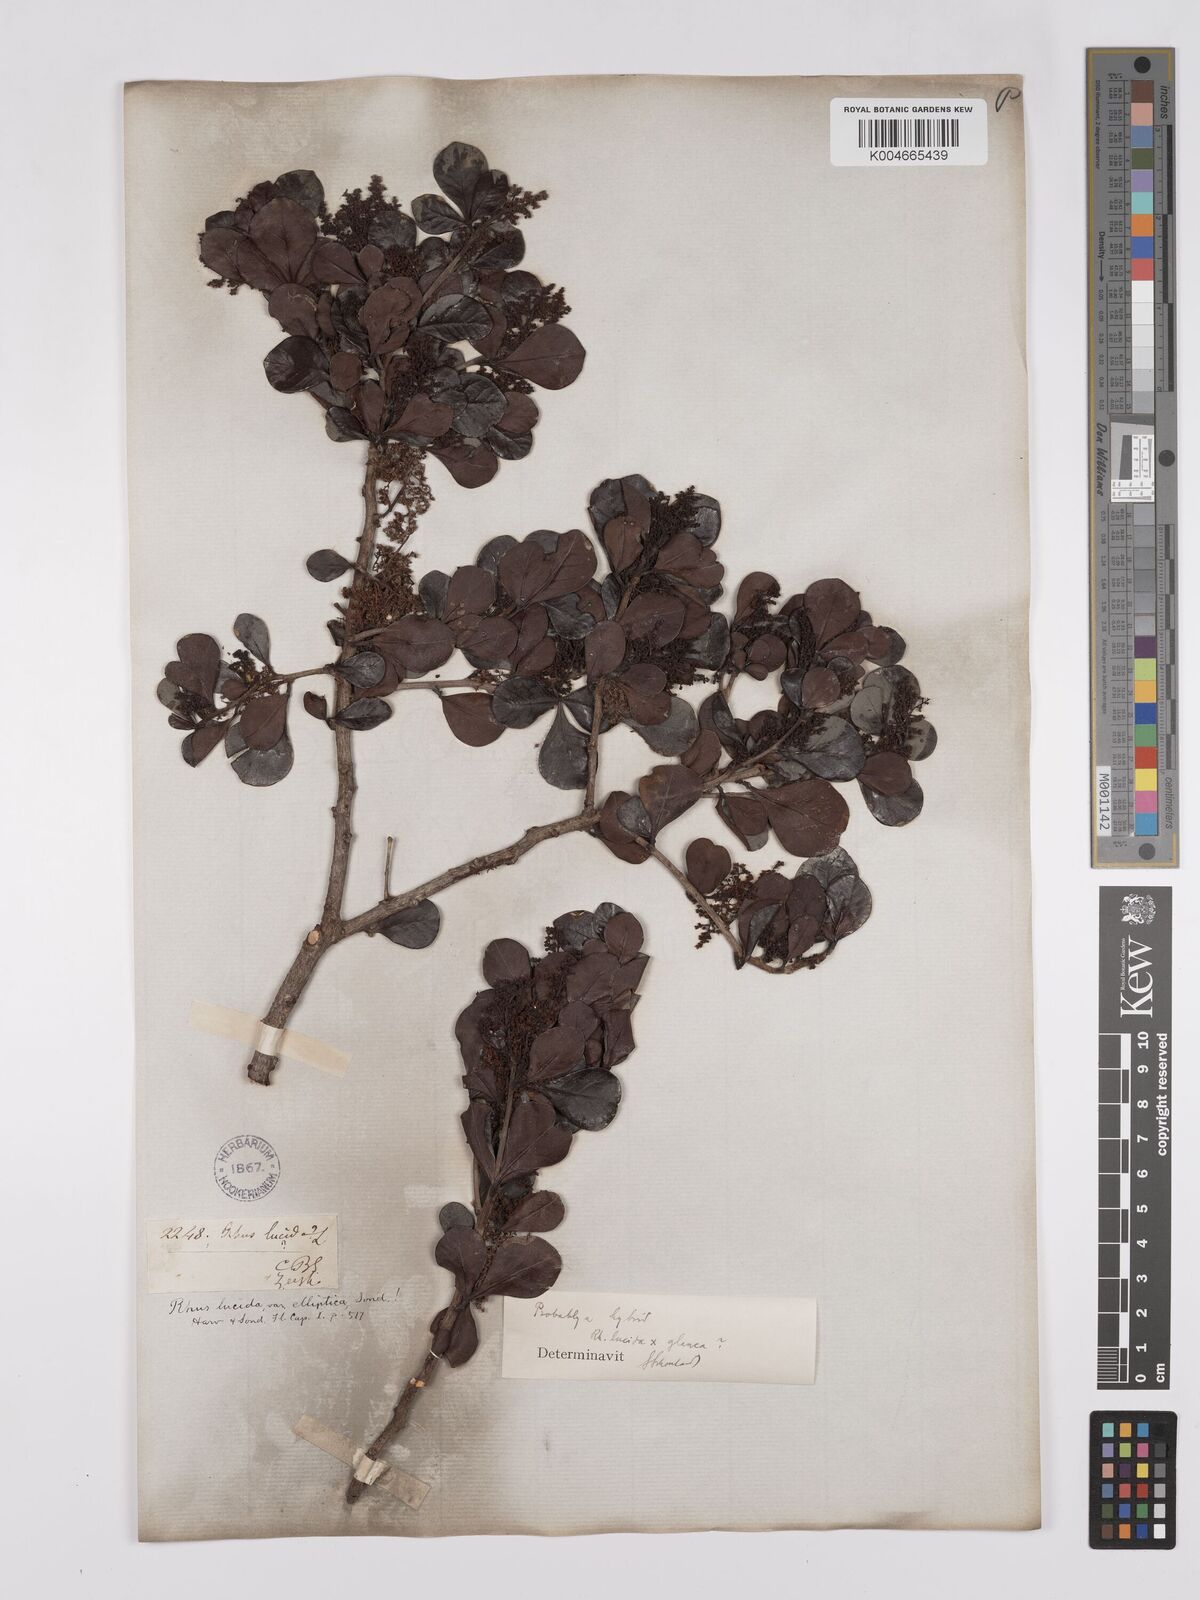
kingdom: Plantae
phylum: Tracheophyta
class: Magnoliopsida
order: Sapindales
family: Anacardiaceae
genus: Searsia
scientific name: Searsia lucida
